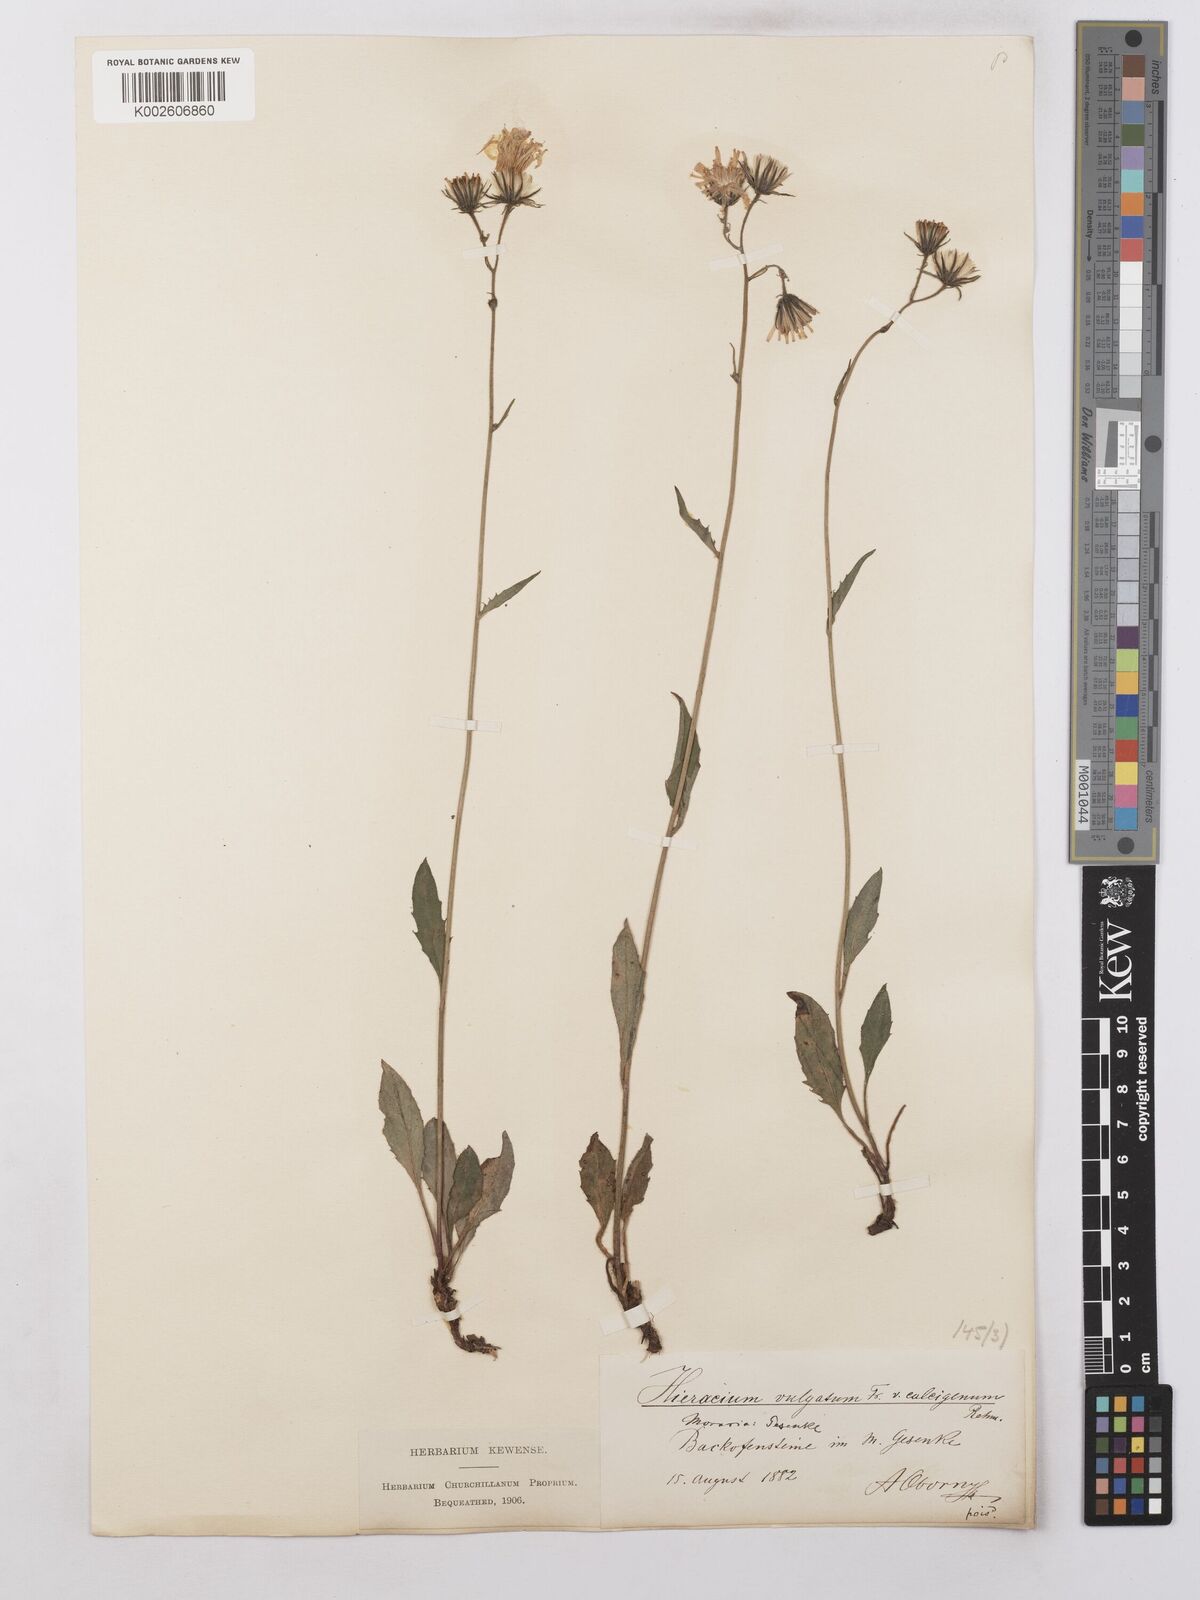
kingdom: Plantae
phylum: Tracheophyta
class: Magnoliopsida
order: Asterales
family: Asteraceae
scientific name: Asteraceae
